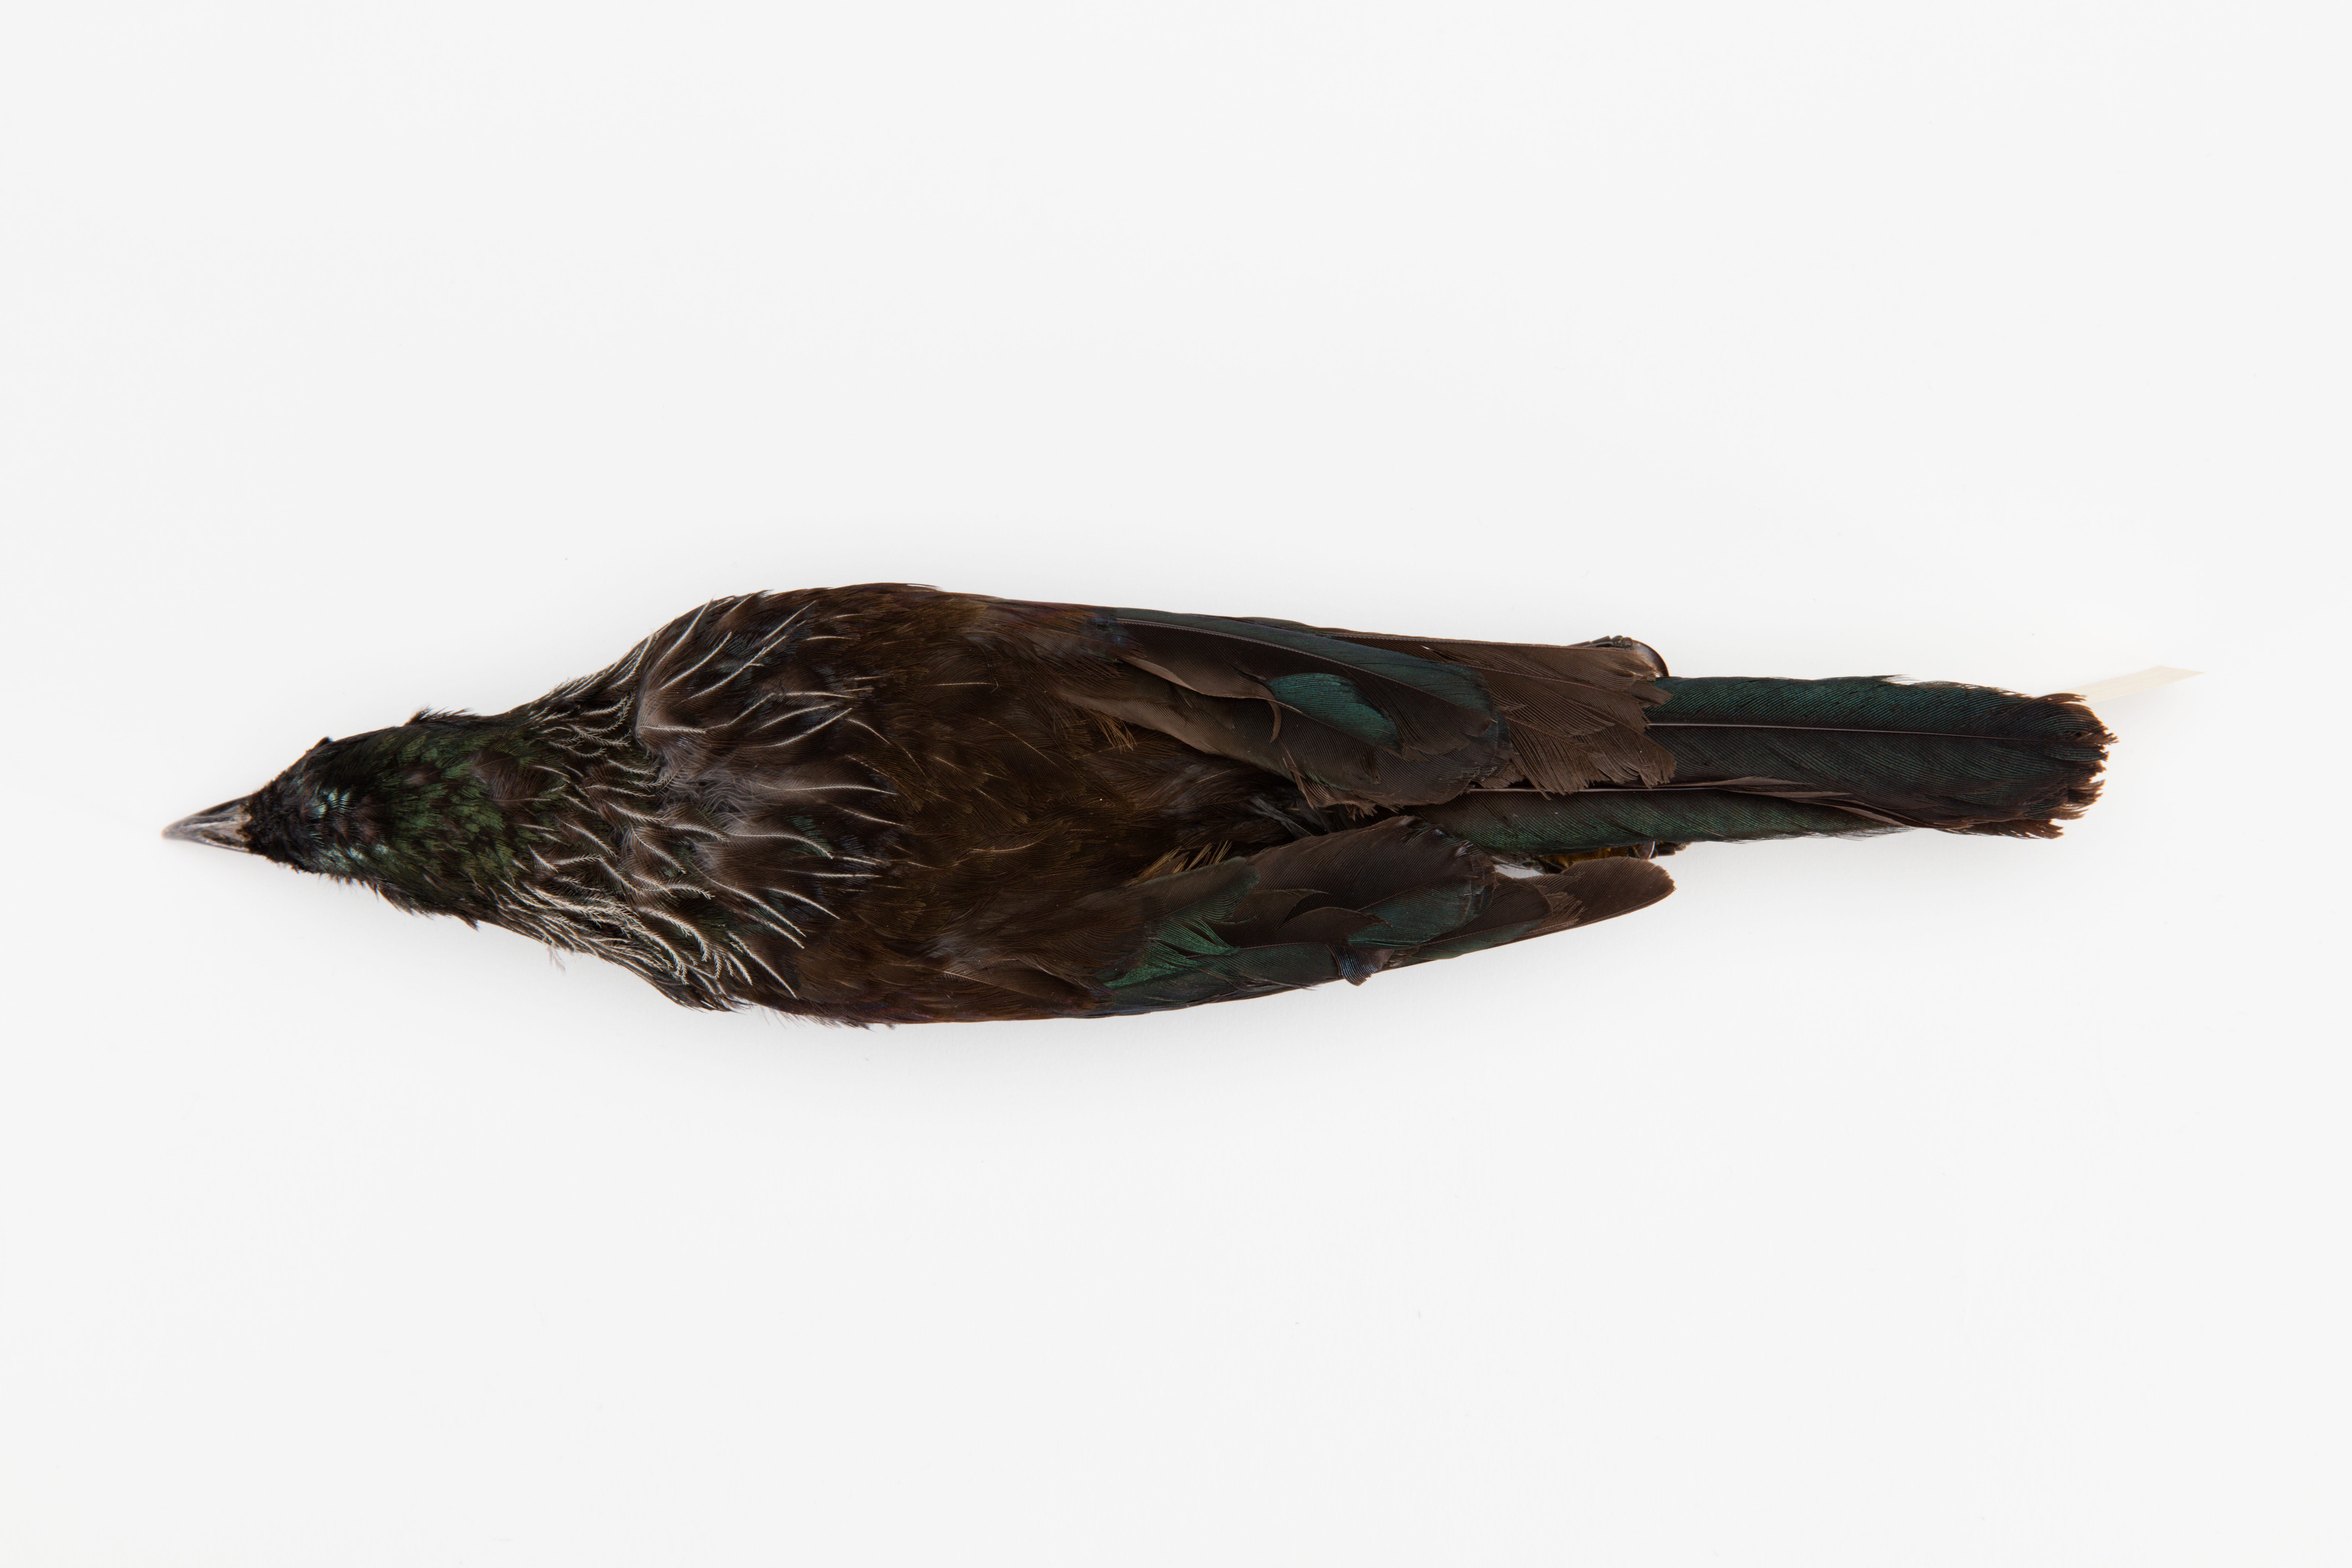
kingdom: Animalia
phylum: Chordata
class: Aves
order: Passeriformes
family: Meliphagidae
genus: Prosthemadera
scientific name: Prosthemadera novaeseelandiae
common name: Tui
